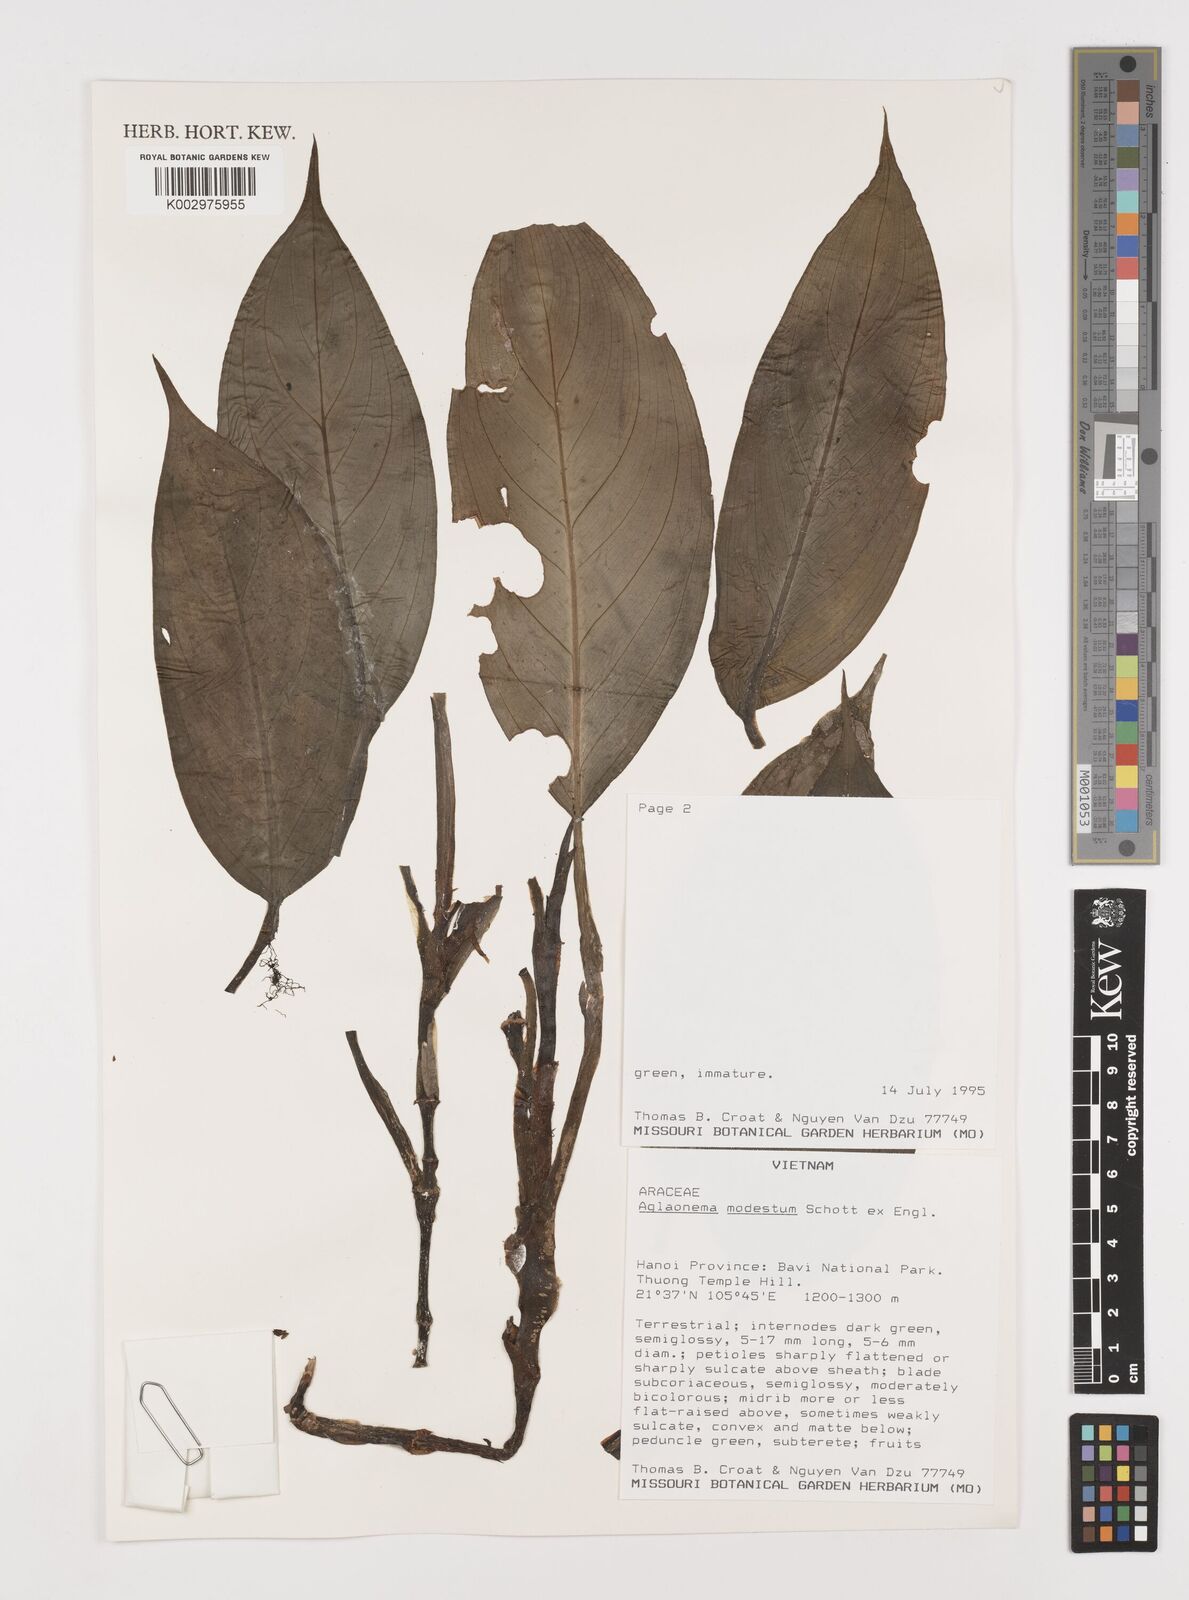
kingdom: Plantae
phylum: Tracheophyta
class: Liliopsida
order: Alismatales
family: Araceae
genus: Aglaonema
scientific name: Aglaonema modestum
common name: Chinese evergreen
